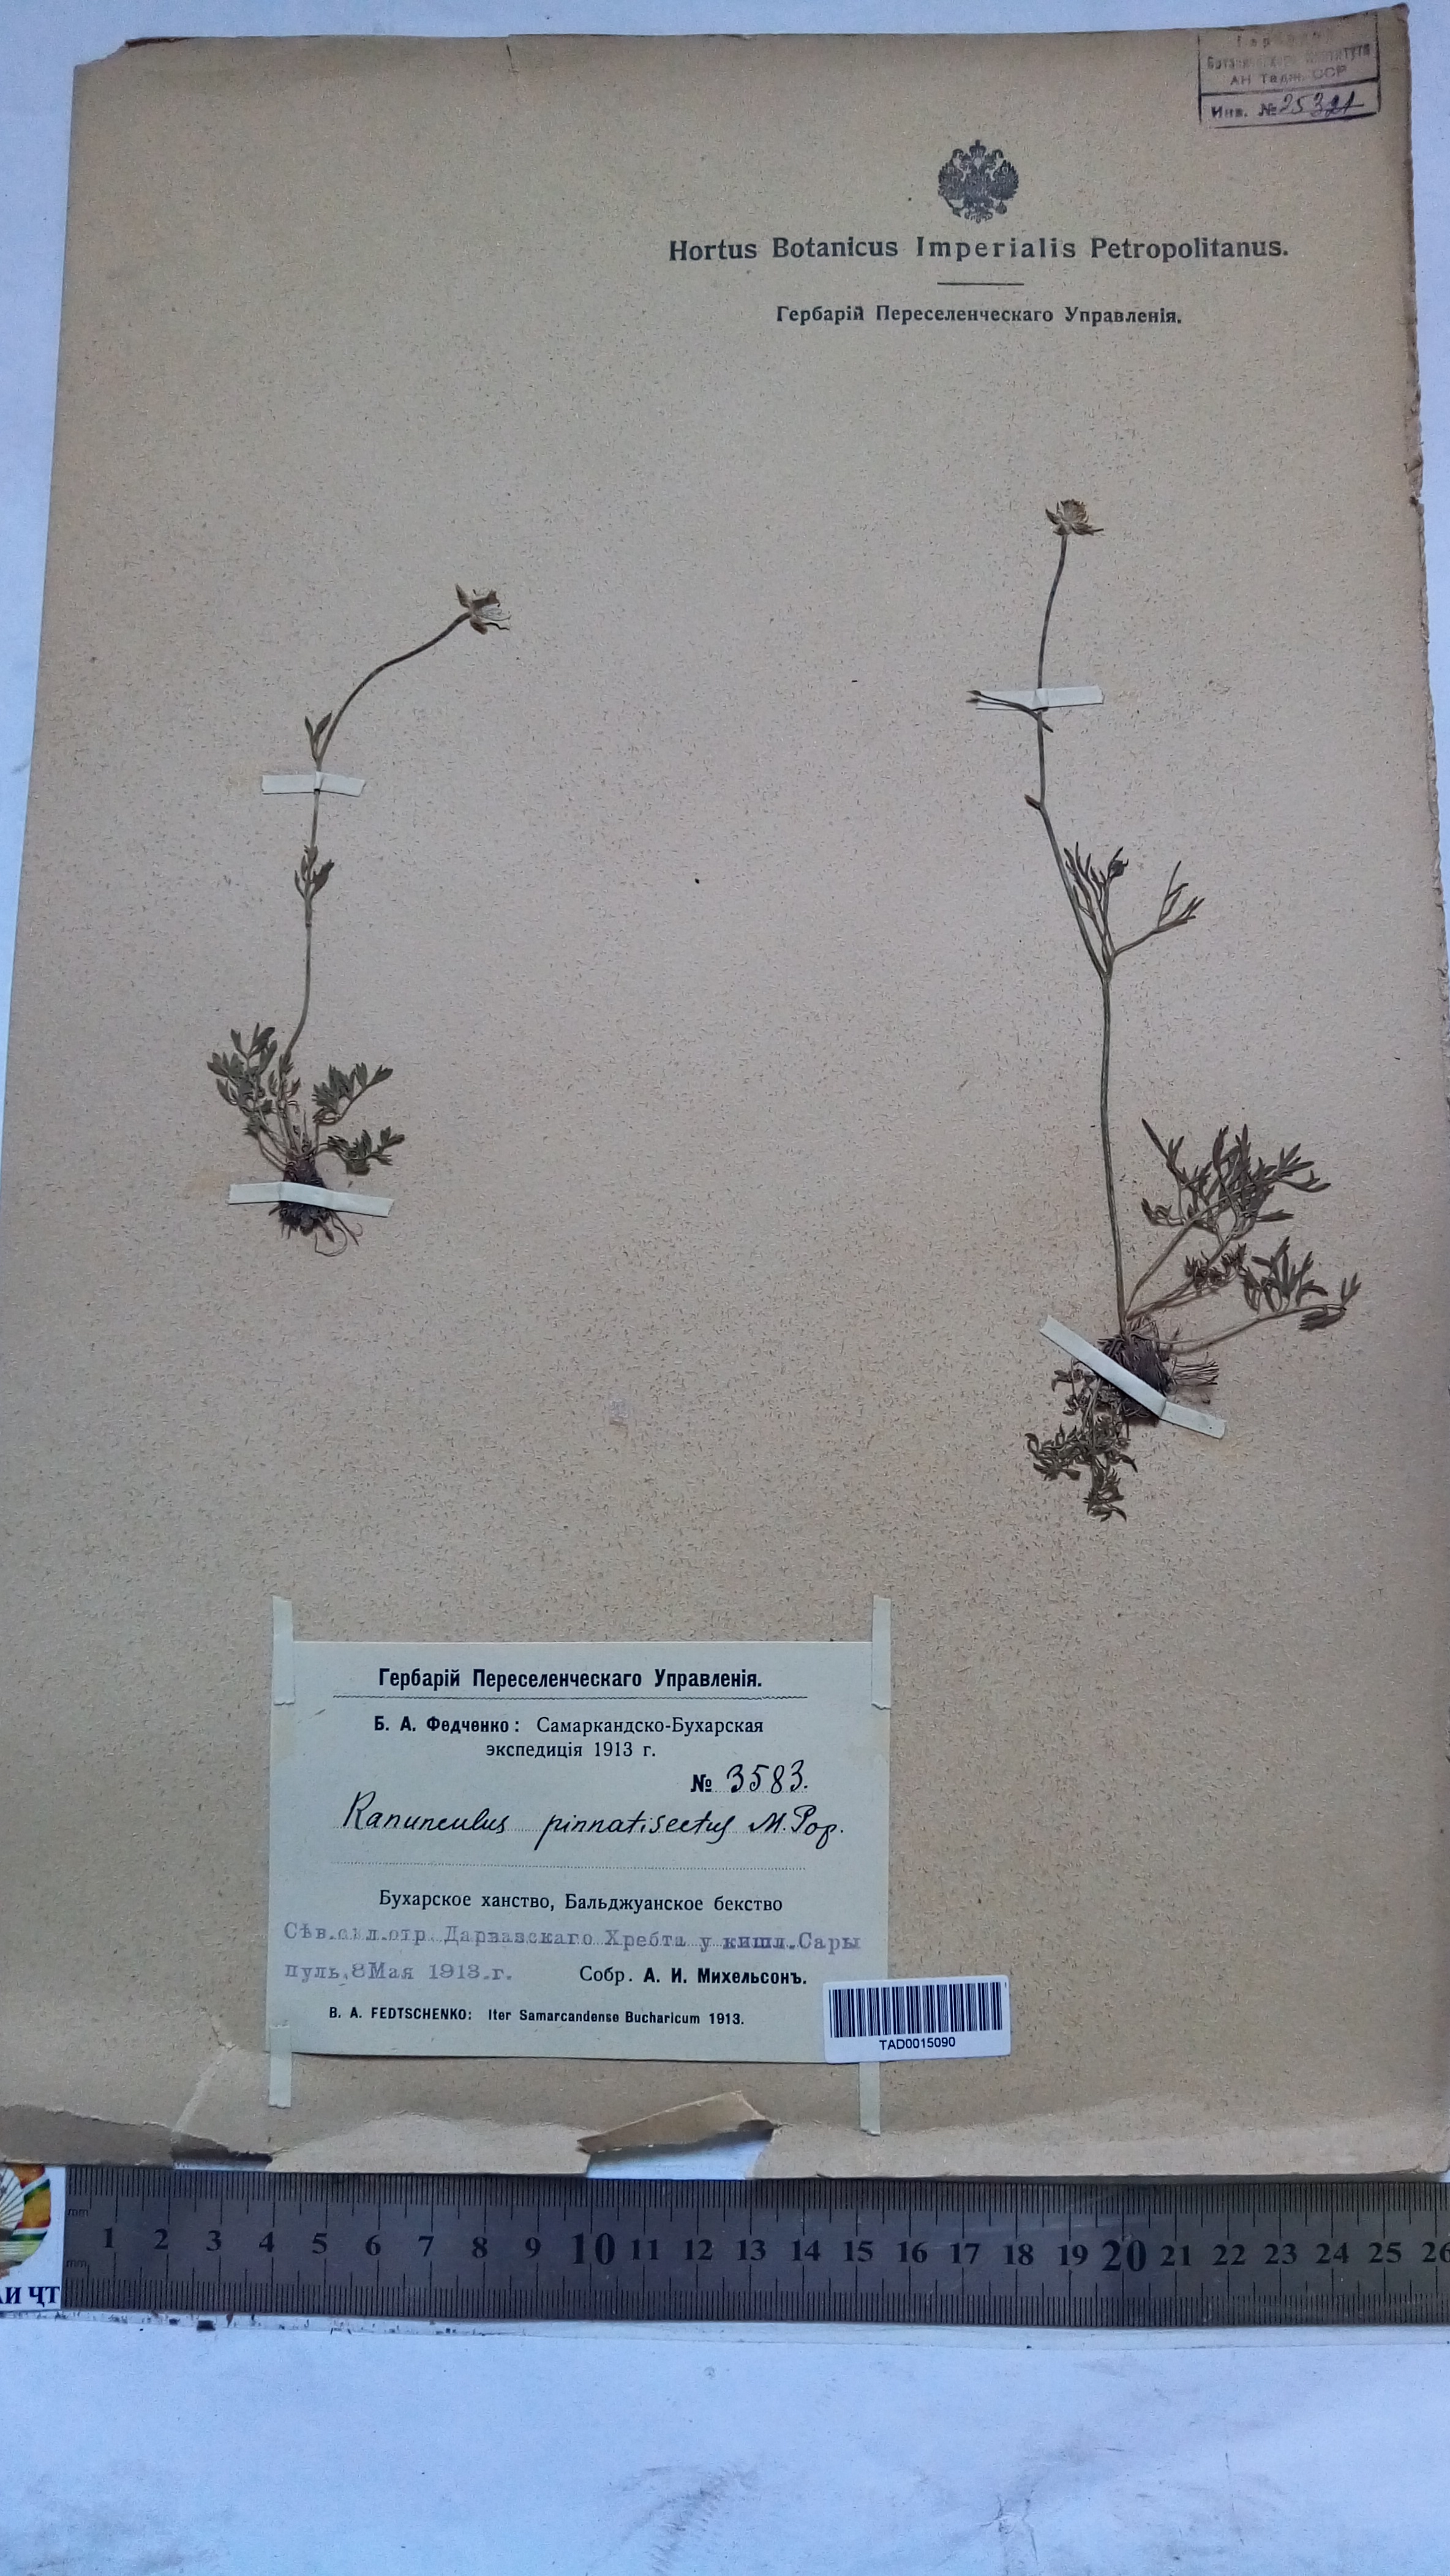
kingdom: Plantae
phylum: Tracheophyta
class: Magnoliopsida
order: Ranunculales
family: Ranunculaceae
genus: Ranunculus
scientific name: Ranunculus pinnatisectus
